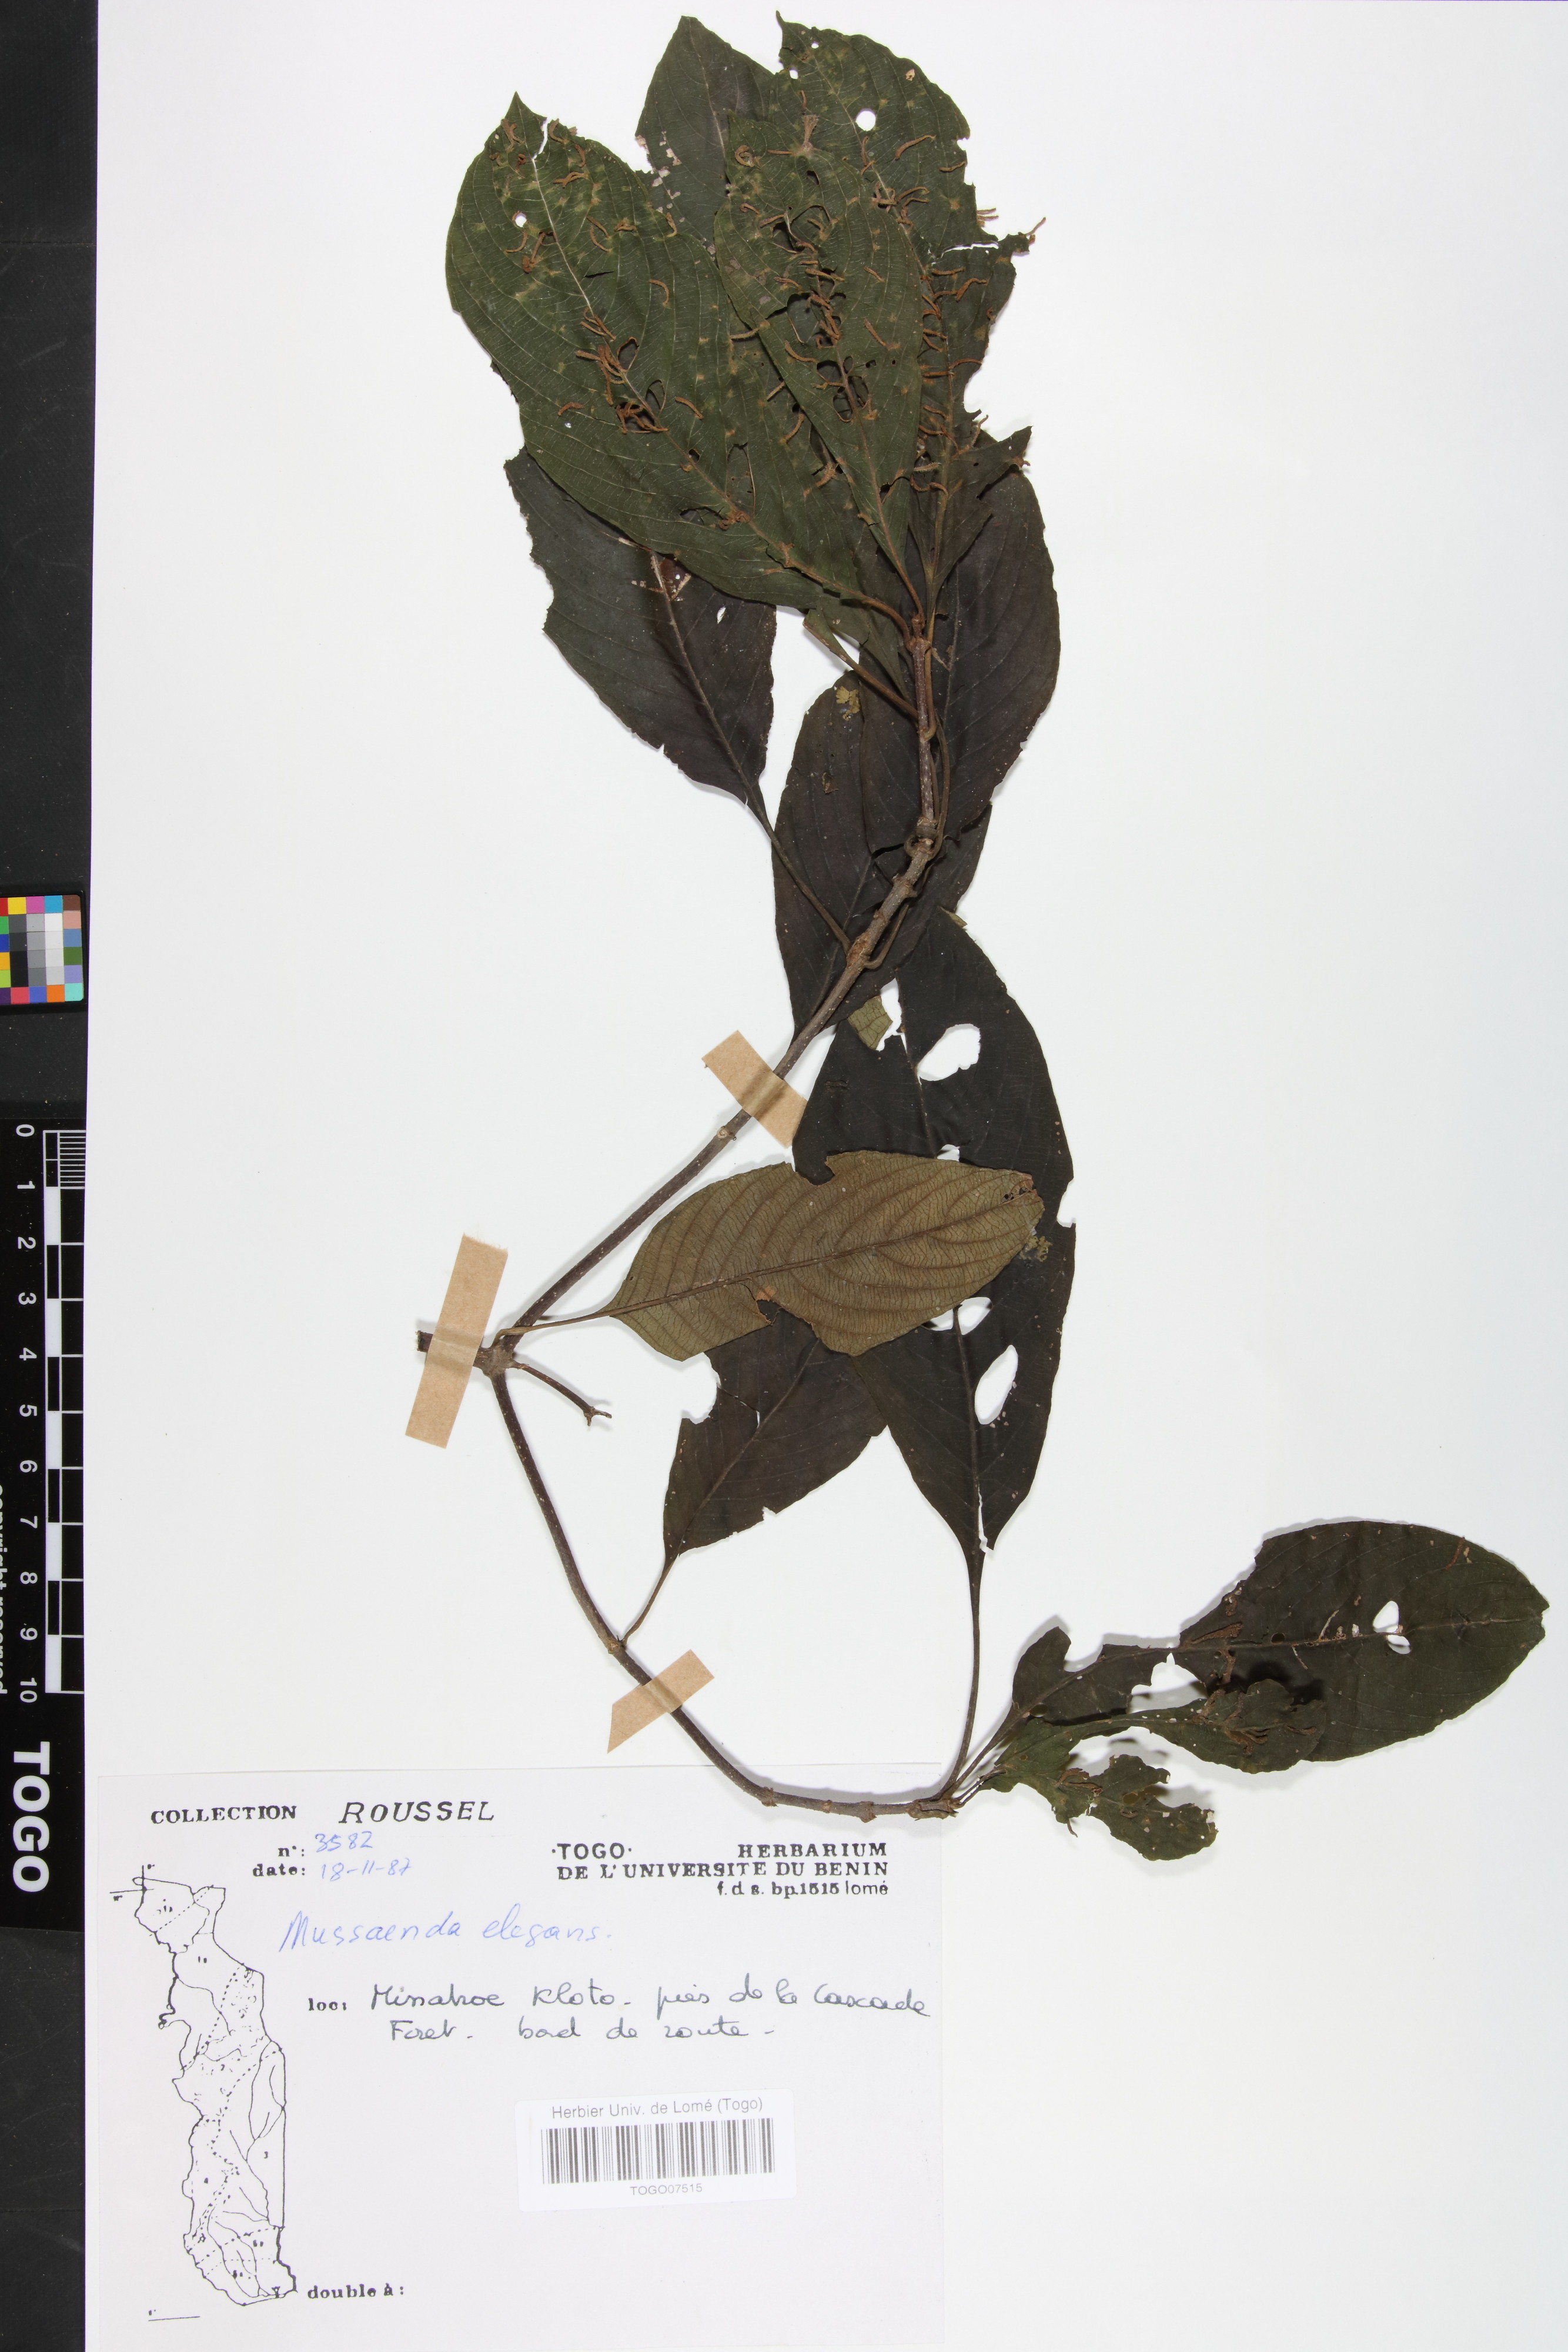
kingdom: Plantae
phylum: Tracheophyta
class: Magnoliopsida
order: Gentianales
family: Rubiaceae
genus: Mussaenda
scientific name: Mussaenda elegans
